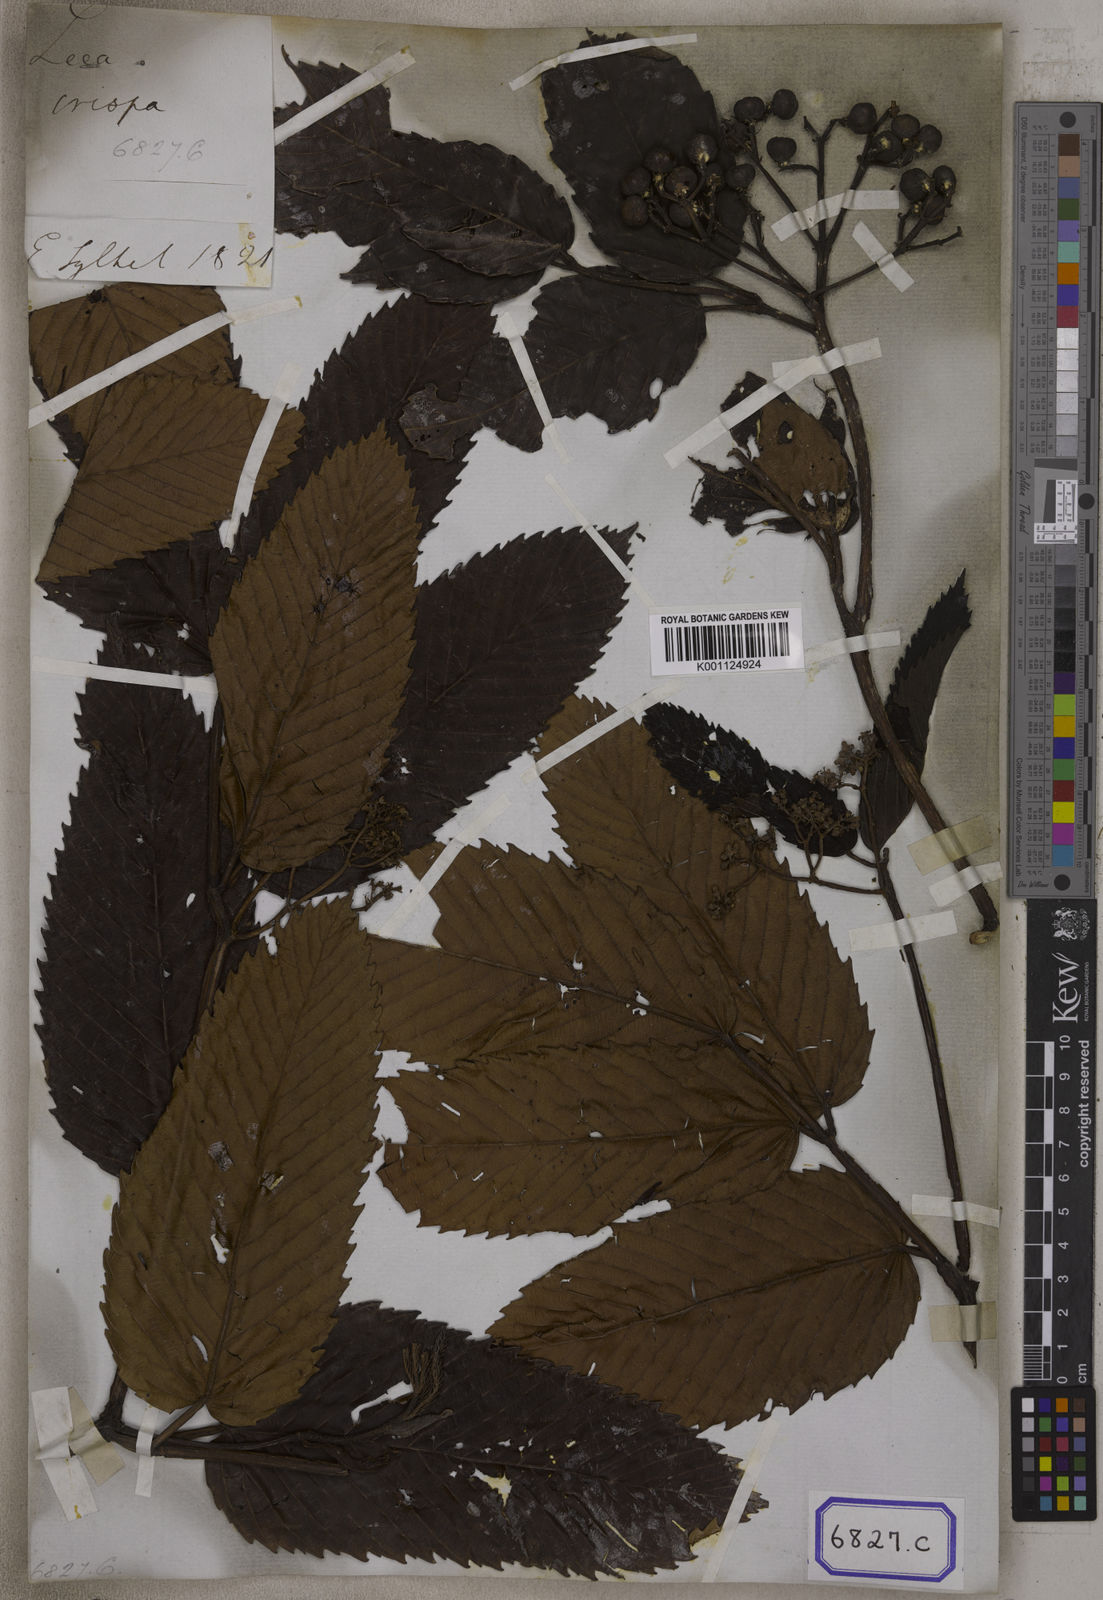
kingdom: Plantae
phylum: Tracheophyta
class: Magnoliopsida
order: Vitales
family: Vitaceae
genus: Leea
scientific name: Leea asiatica
